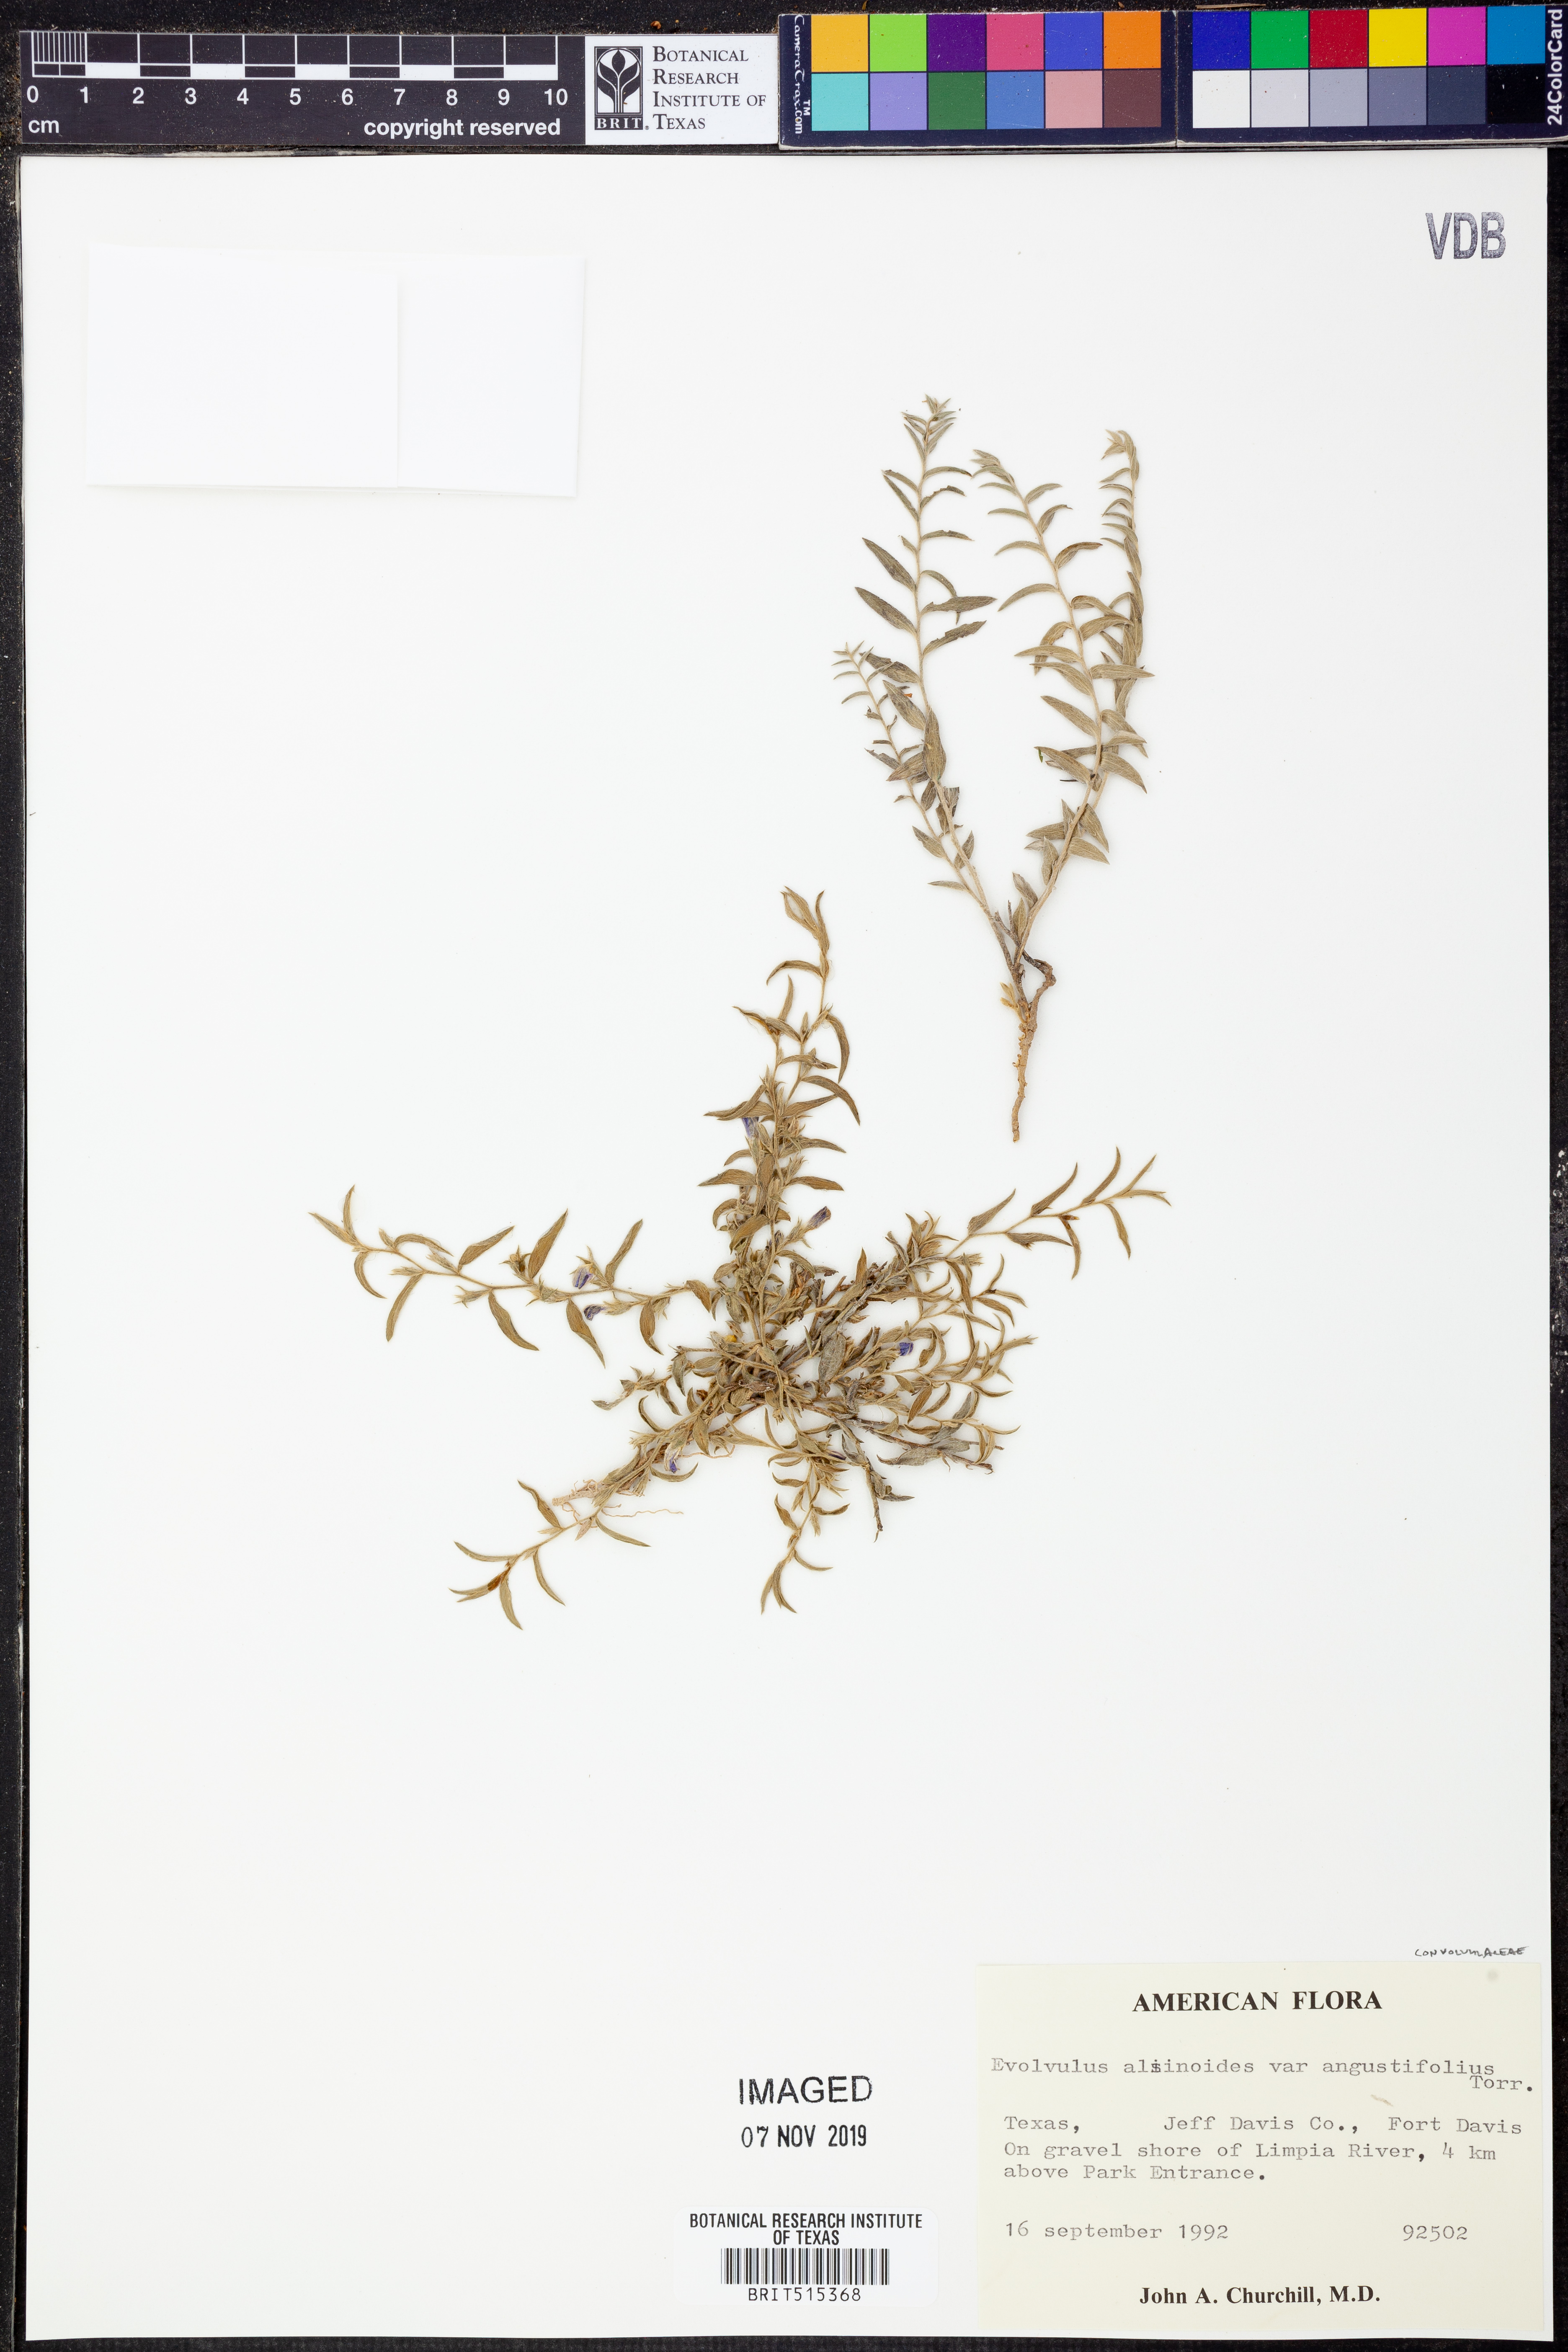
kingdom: Plantae
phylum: Tracheophyta
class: Magnoliopsida
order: Solanales
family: Convolvulaceae
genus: Evolvulus
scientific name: Evolvulus alsinoides
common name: Slender dwarf morning-glory
